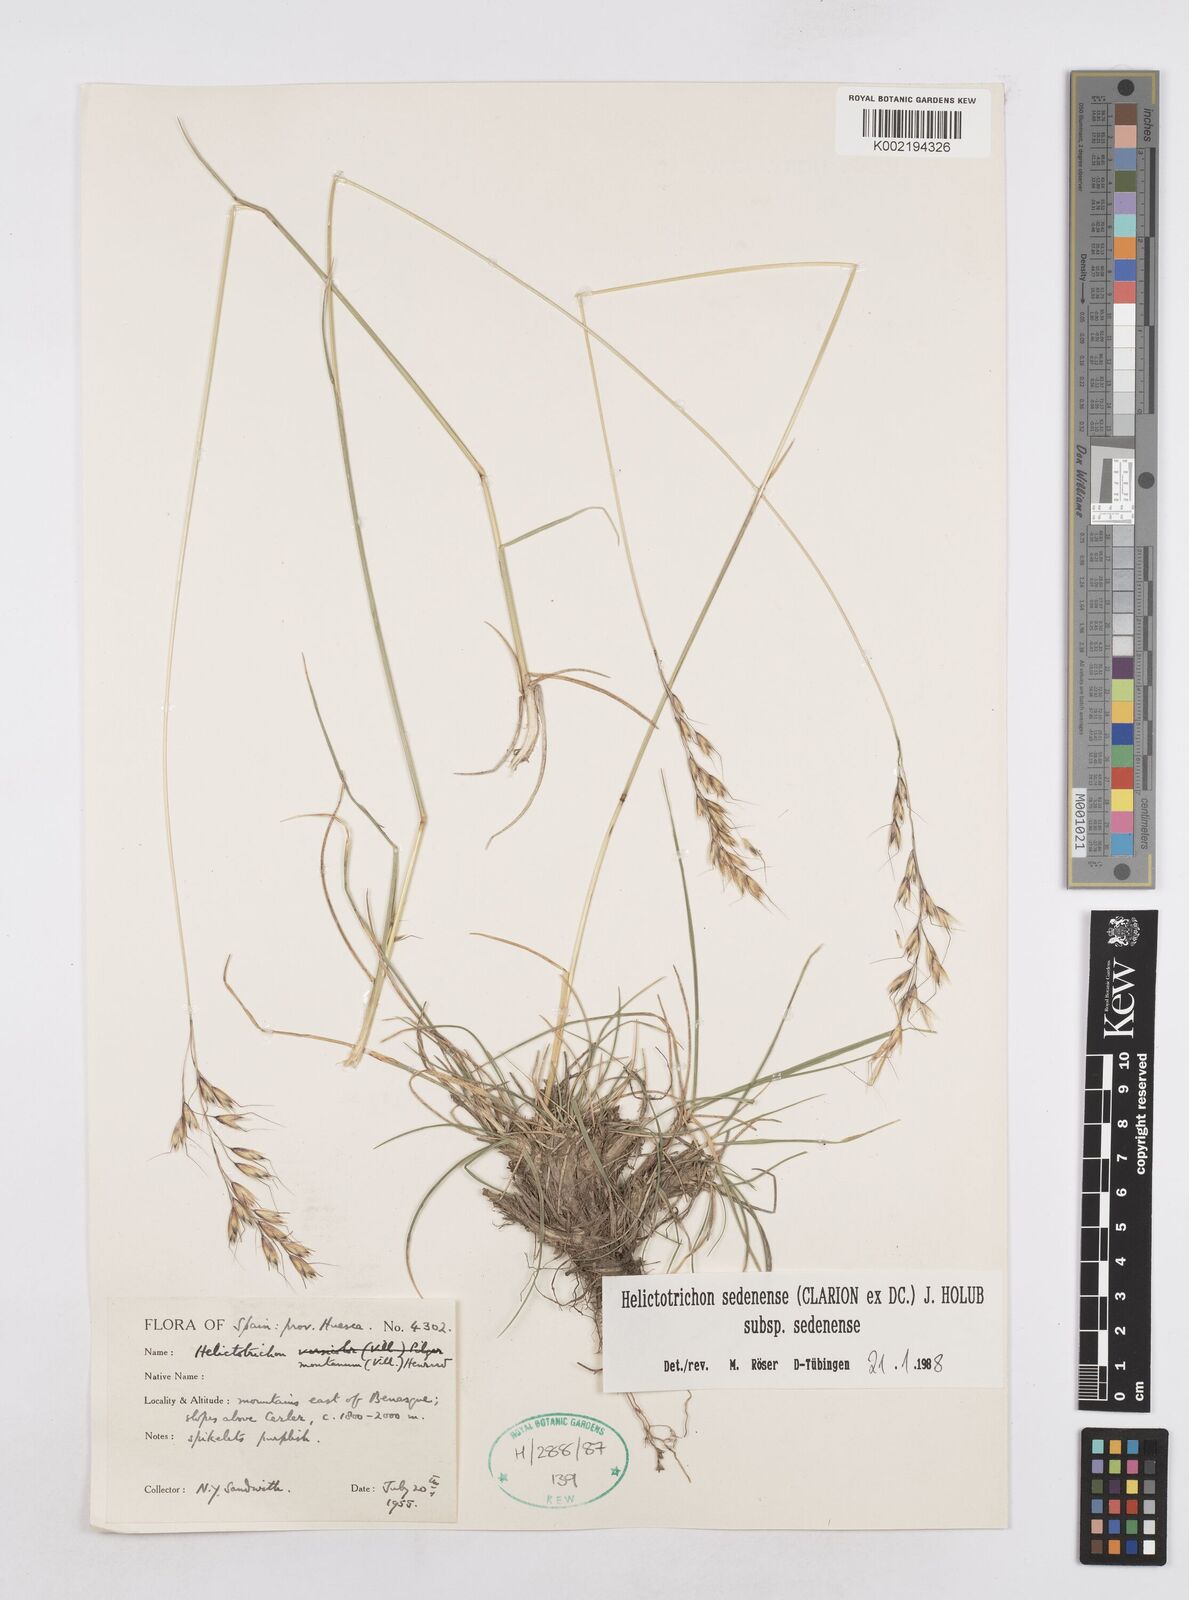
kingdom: Plantae
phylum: Tracheophyta
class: Liliopsida
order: Poales
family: Poaceae
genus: Helictotrichon
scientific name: Helictotrichon sedenense
